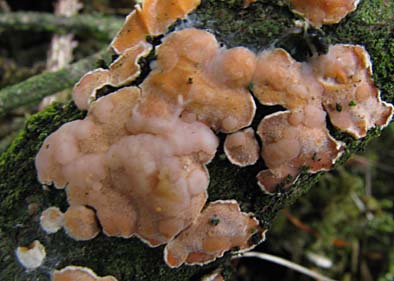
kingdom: Fungi
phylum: Basidiomycota
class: Tremellomycetes
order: Tremellales
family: Tremellaceae
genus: Phaeotremella
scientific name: Phaeotremella simplex
